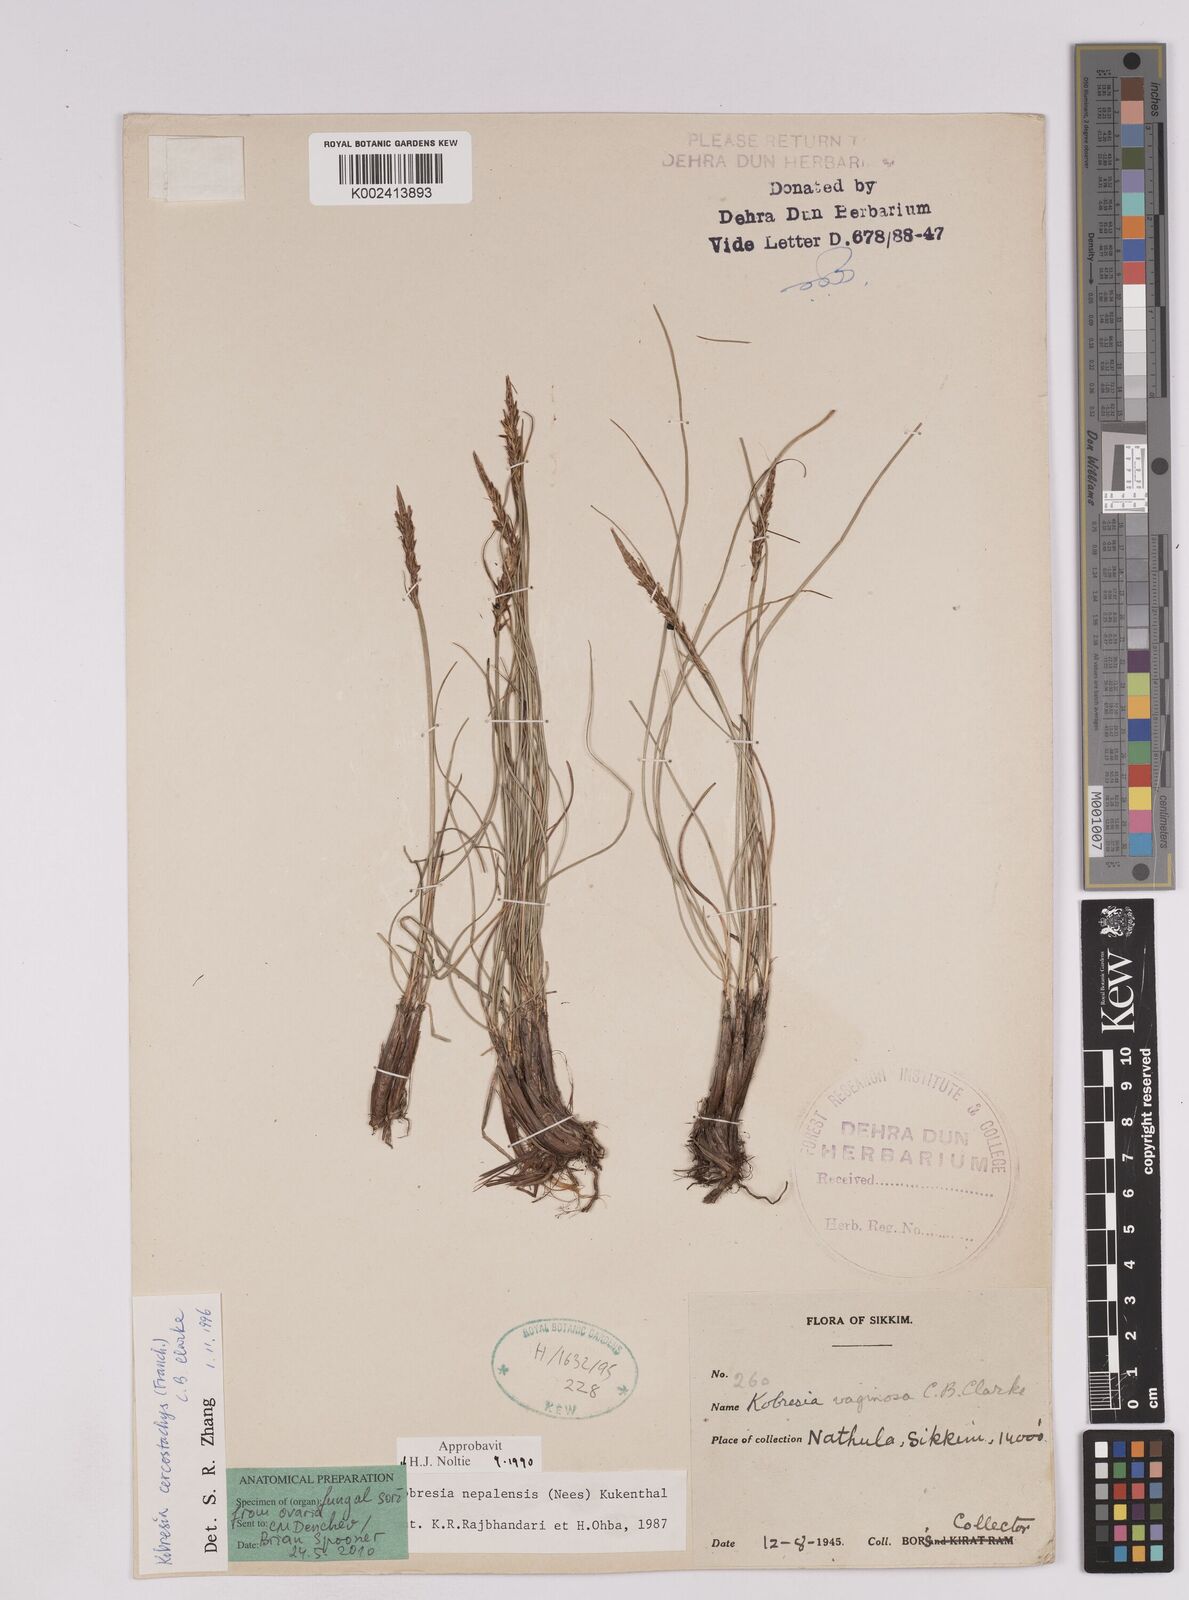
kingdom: Plantae
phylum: Tracheophyta
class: Liliopsida
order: Poales
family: Cyperaceae
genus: Carex
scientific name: Carex cercostachys
